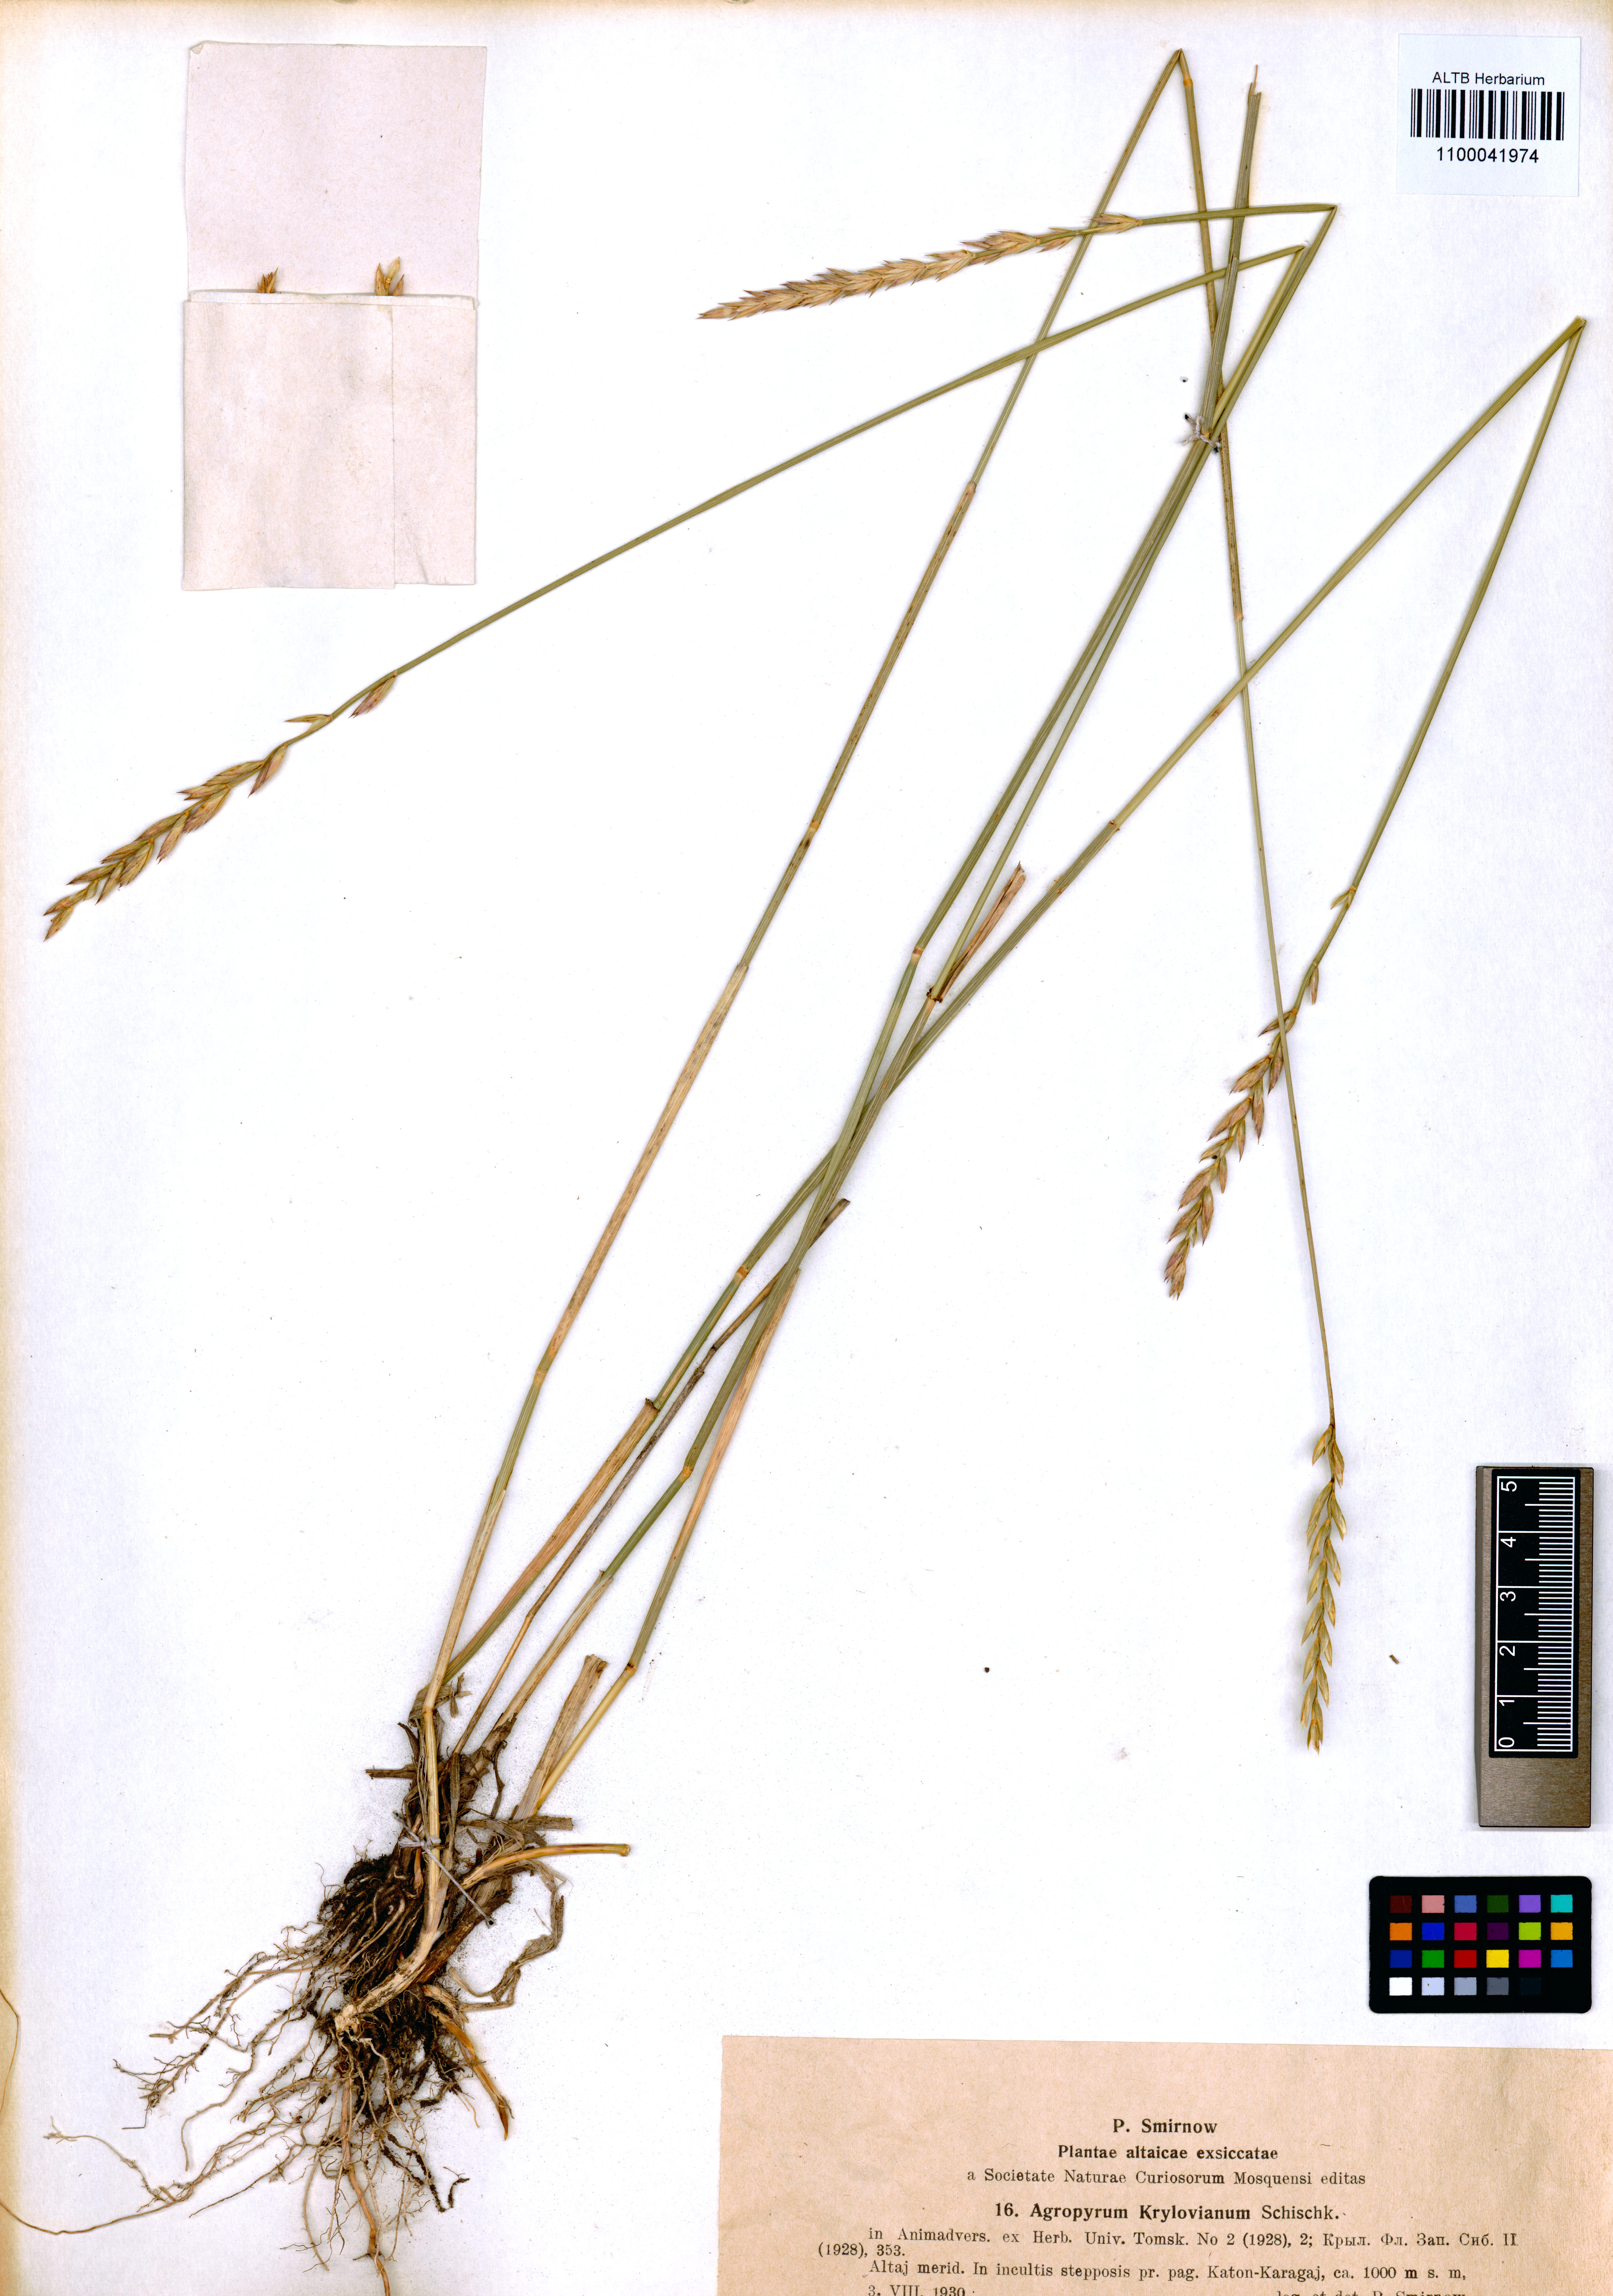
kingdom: Plantae
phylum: Tracheophyta
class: Liliopsida
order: Poales
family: Poaceae
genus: Kengyilia
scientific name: Kengyilia kryloviana
